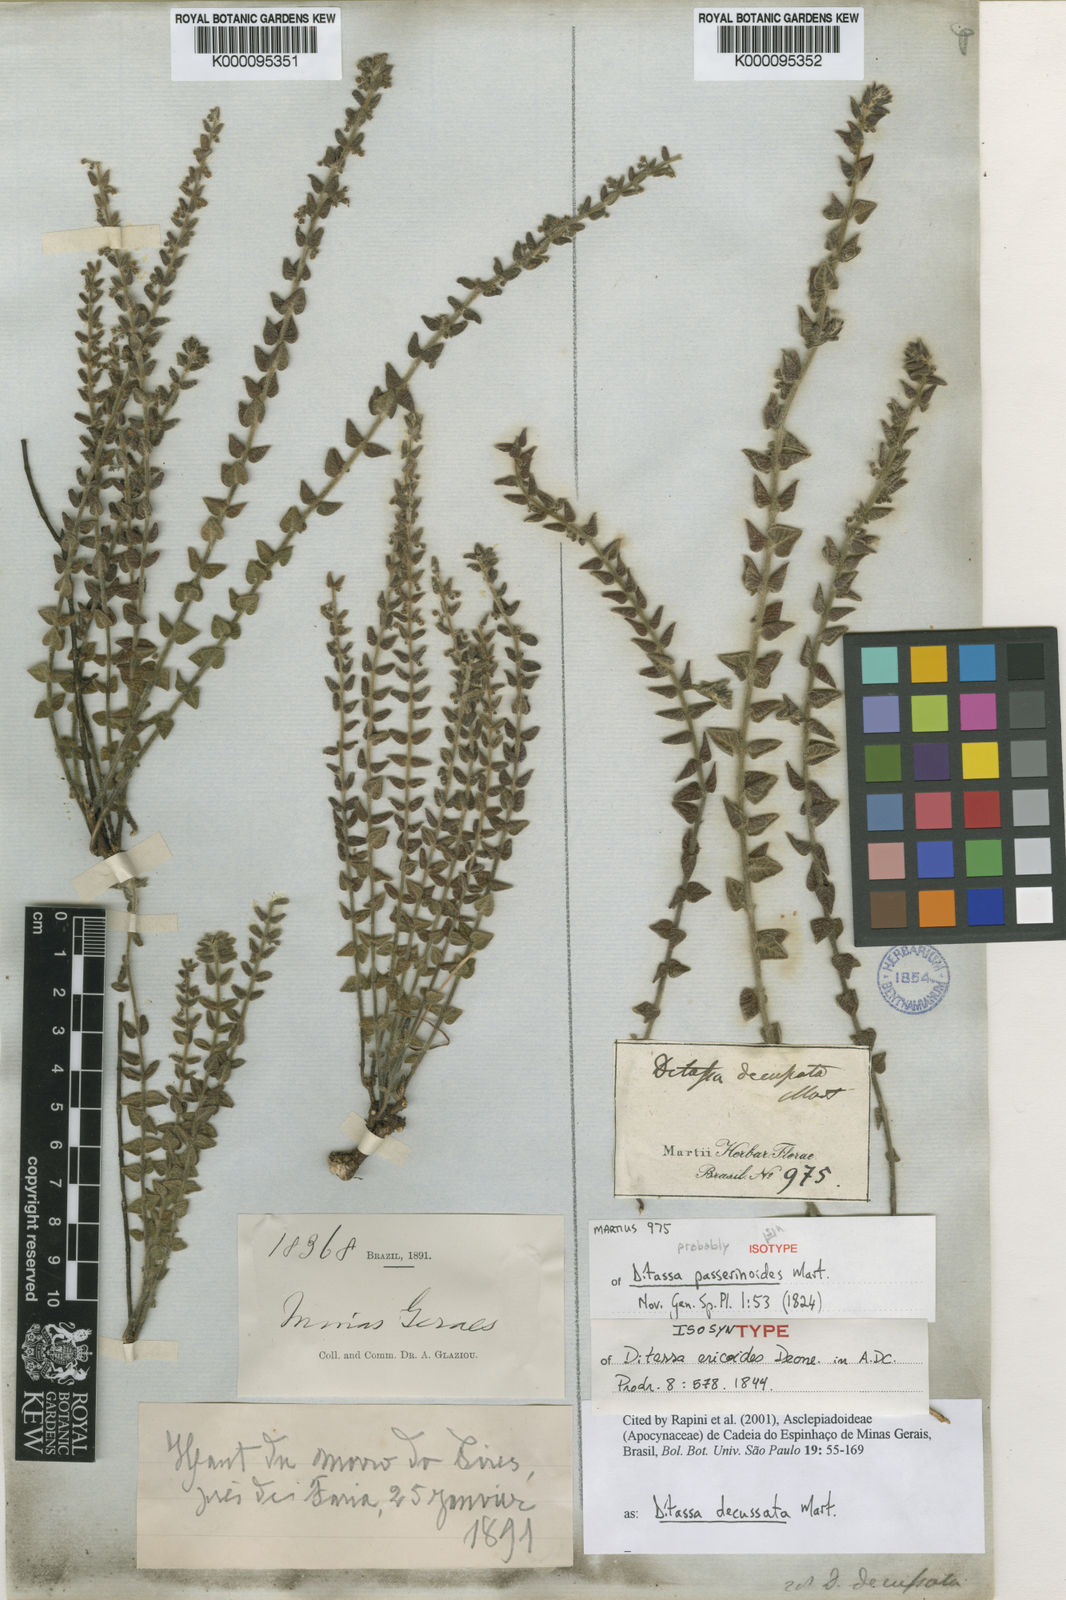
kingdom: Plantae
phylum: Tracheophyta
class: Magnoliopsida
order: Gentianales
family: Apocynaceae
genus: Minaria
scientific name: Minaria decussata
